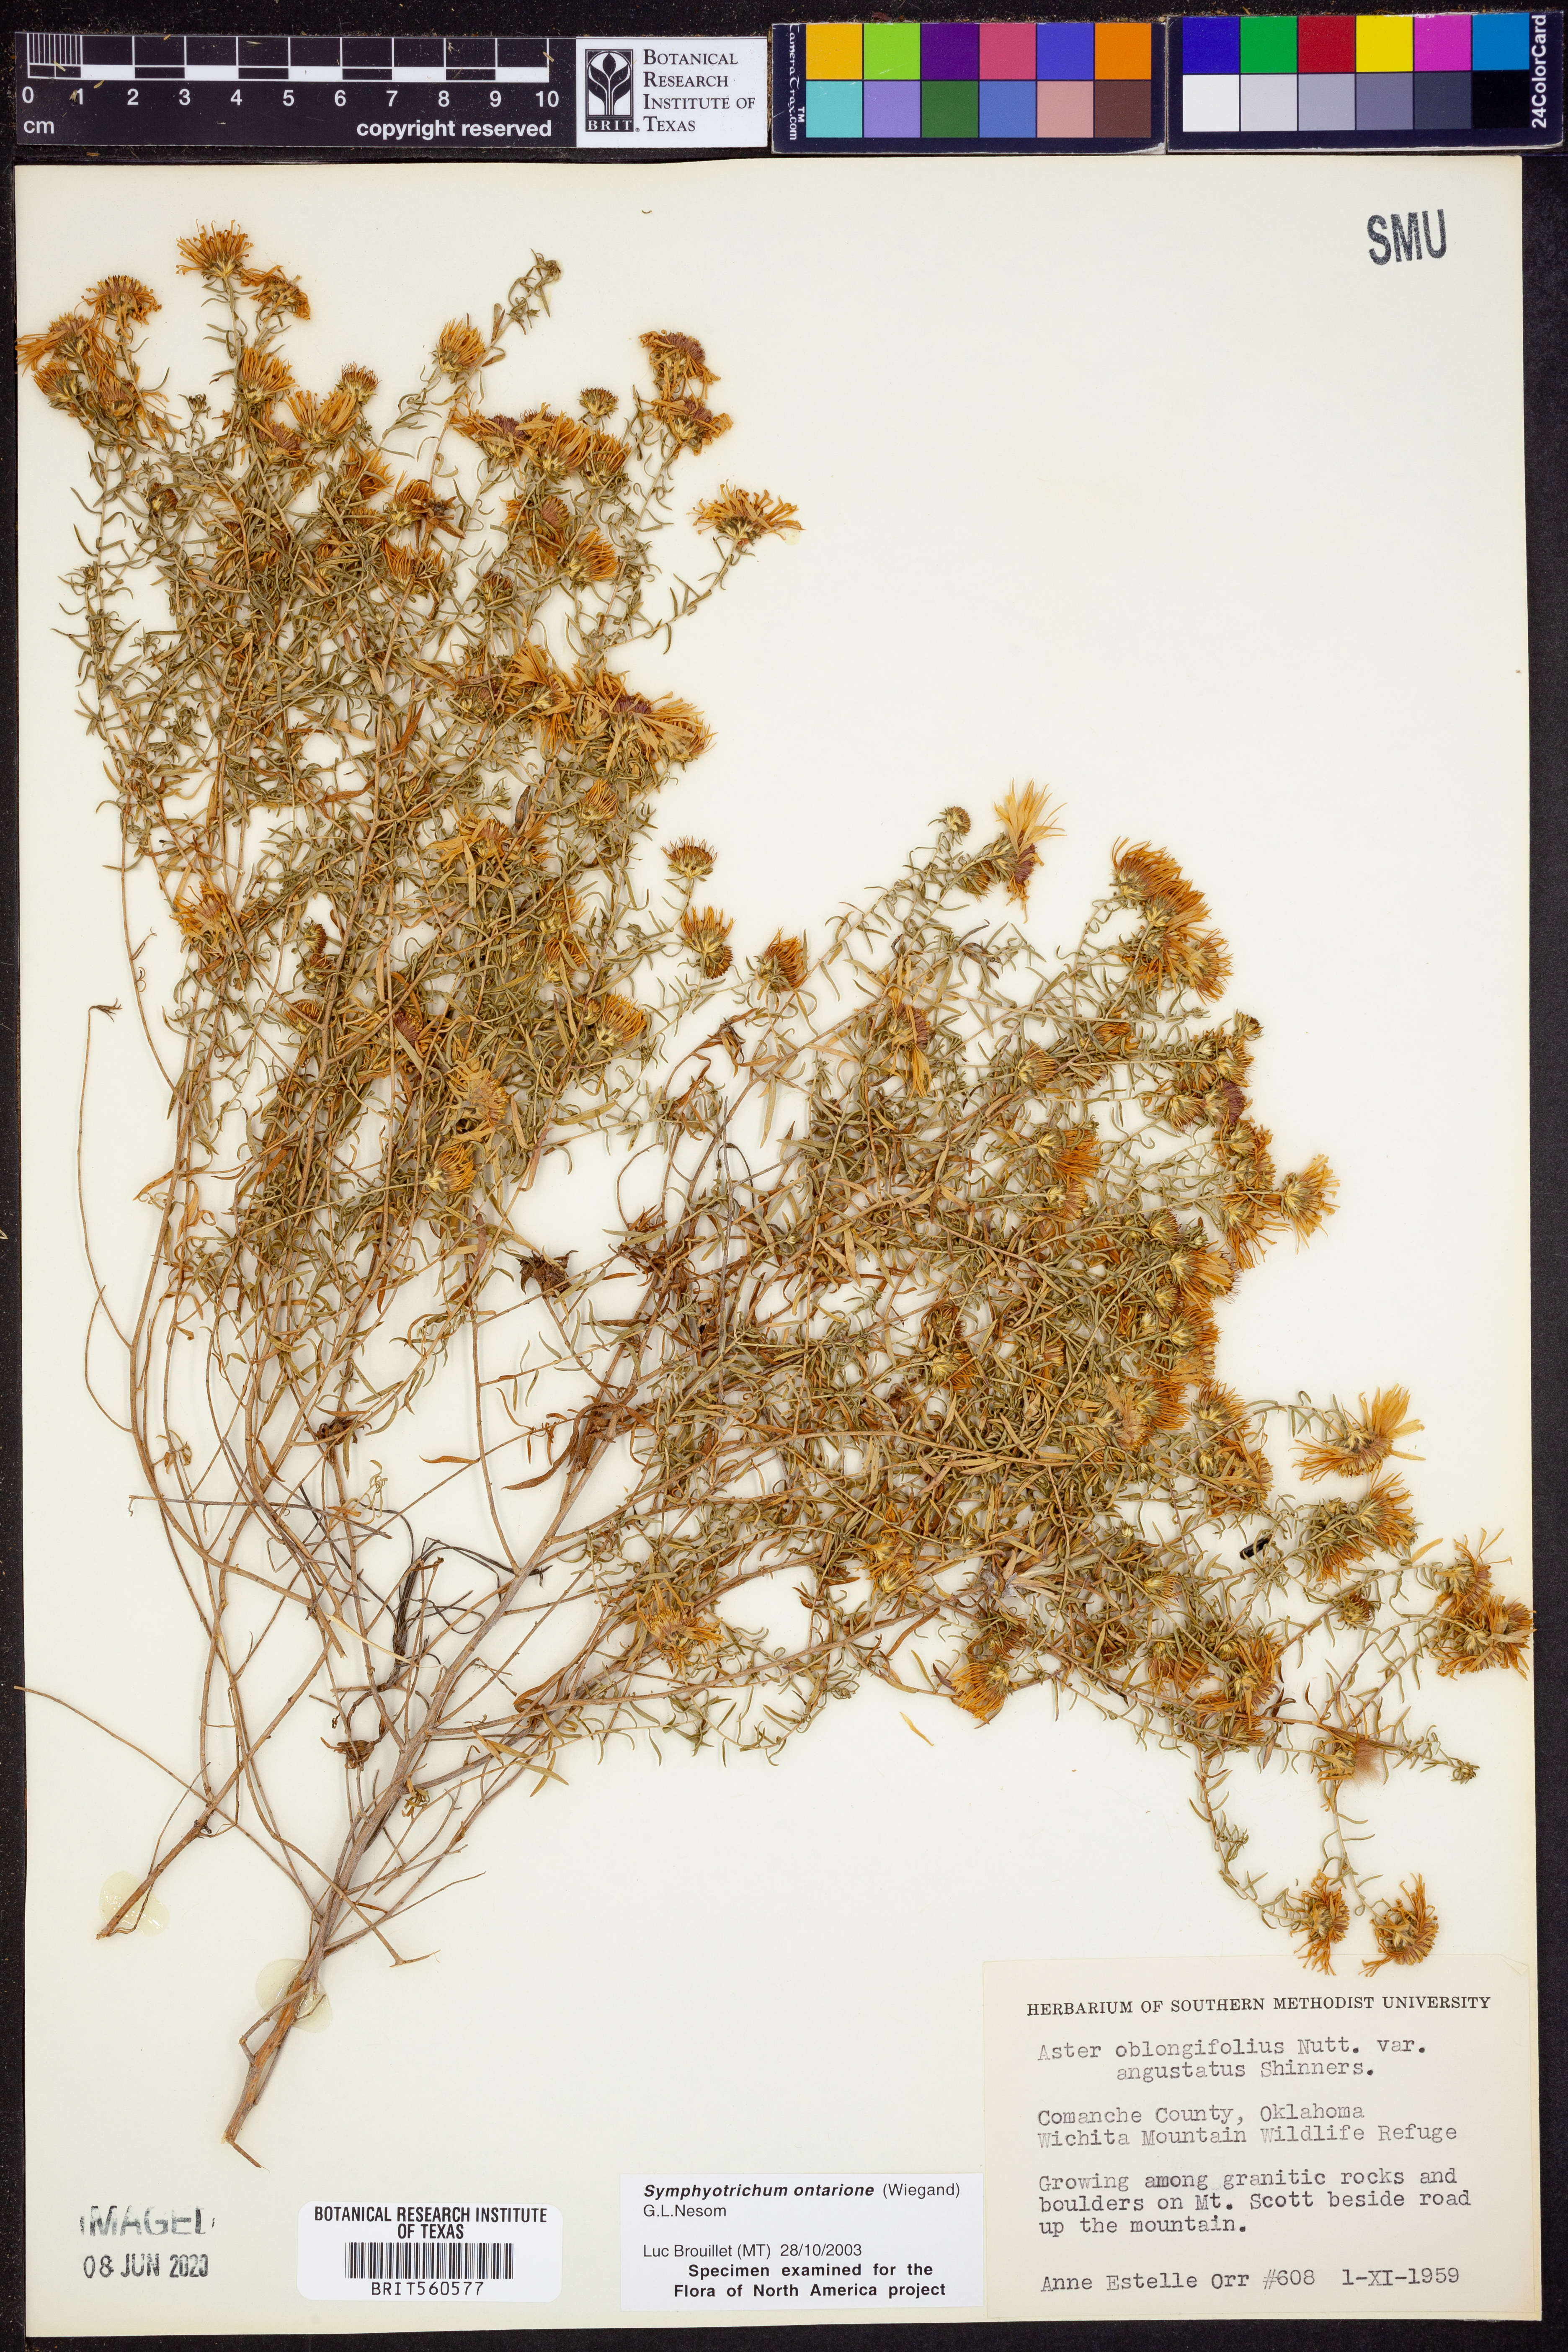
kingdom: Plantae
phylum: Tracheophyta
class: Magnoliopsida
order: Asterales
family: Asteraceae
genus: Symphyotrichum
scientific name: Symphyotrichum ontarionis
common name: Bottomland aster
